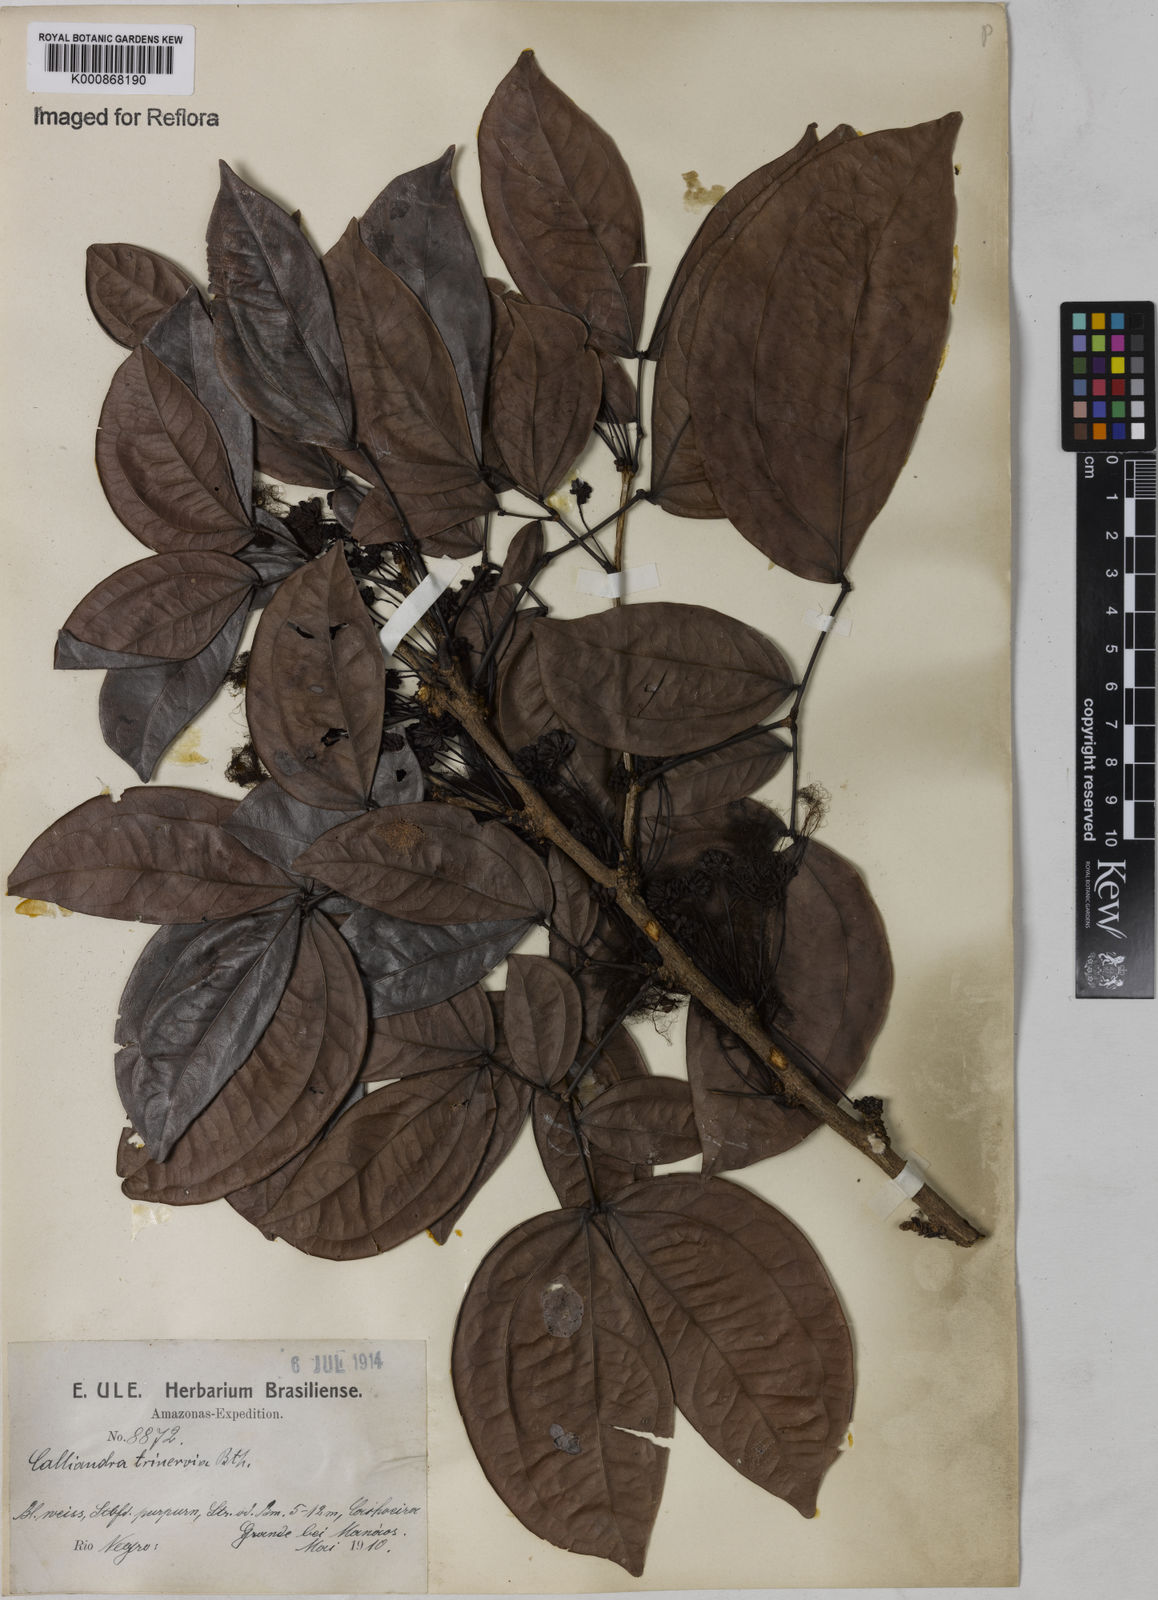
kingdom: Plantae
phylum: Tracheophyta
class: Magnoliopsida
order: Fabales
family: Fabaceae
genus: Calliandra
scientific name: Calliandra trinervia
